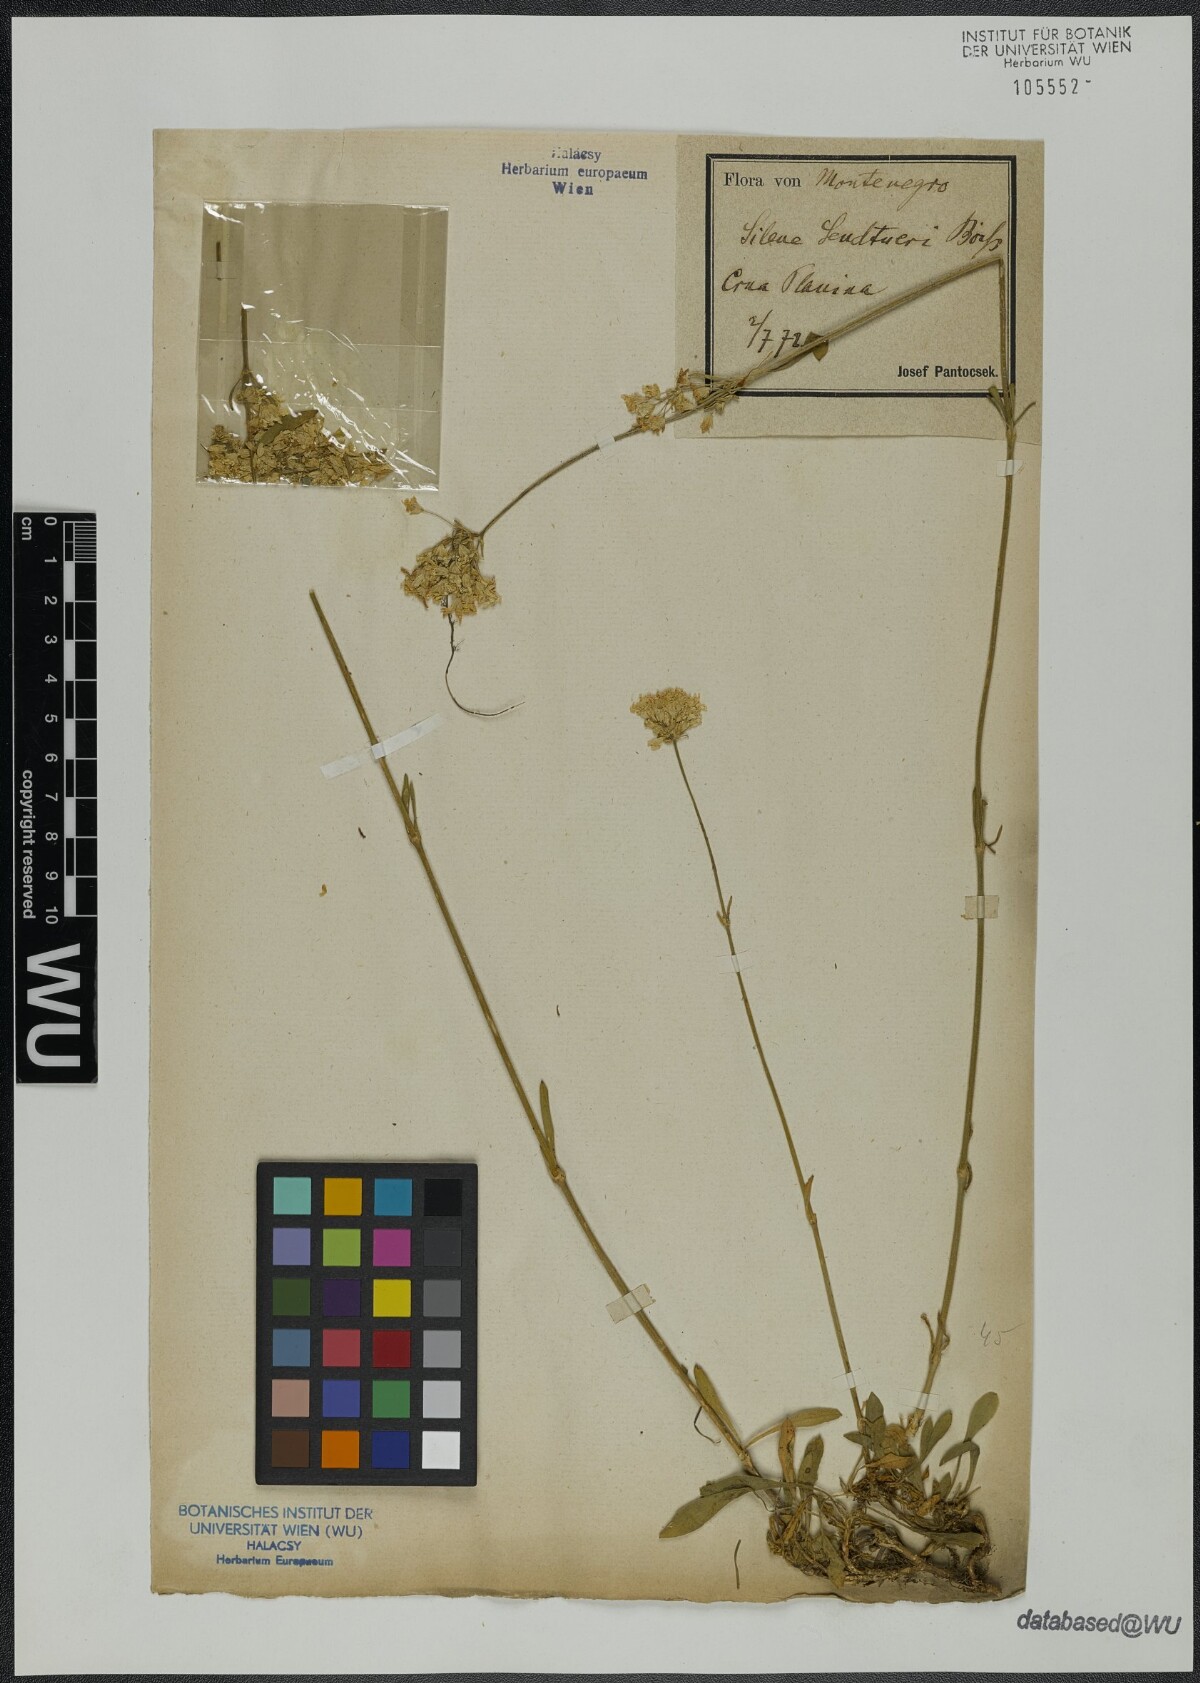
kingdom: Plantae
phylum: Tracheophyta
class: Magnoliopsida
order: Caryophyllales
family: Caryophyllaceae
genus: Silene
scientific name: Silene sendtneri
